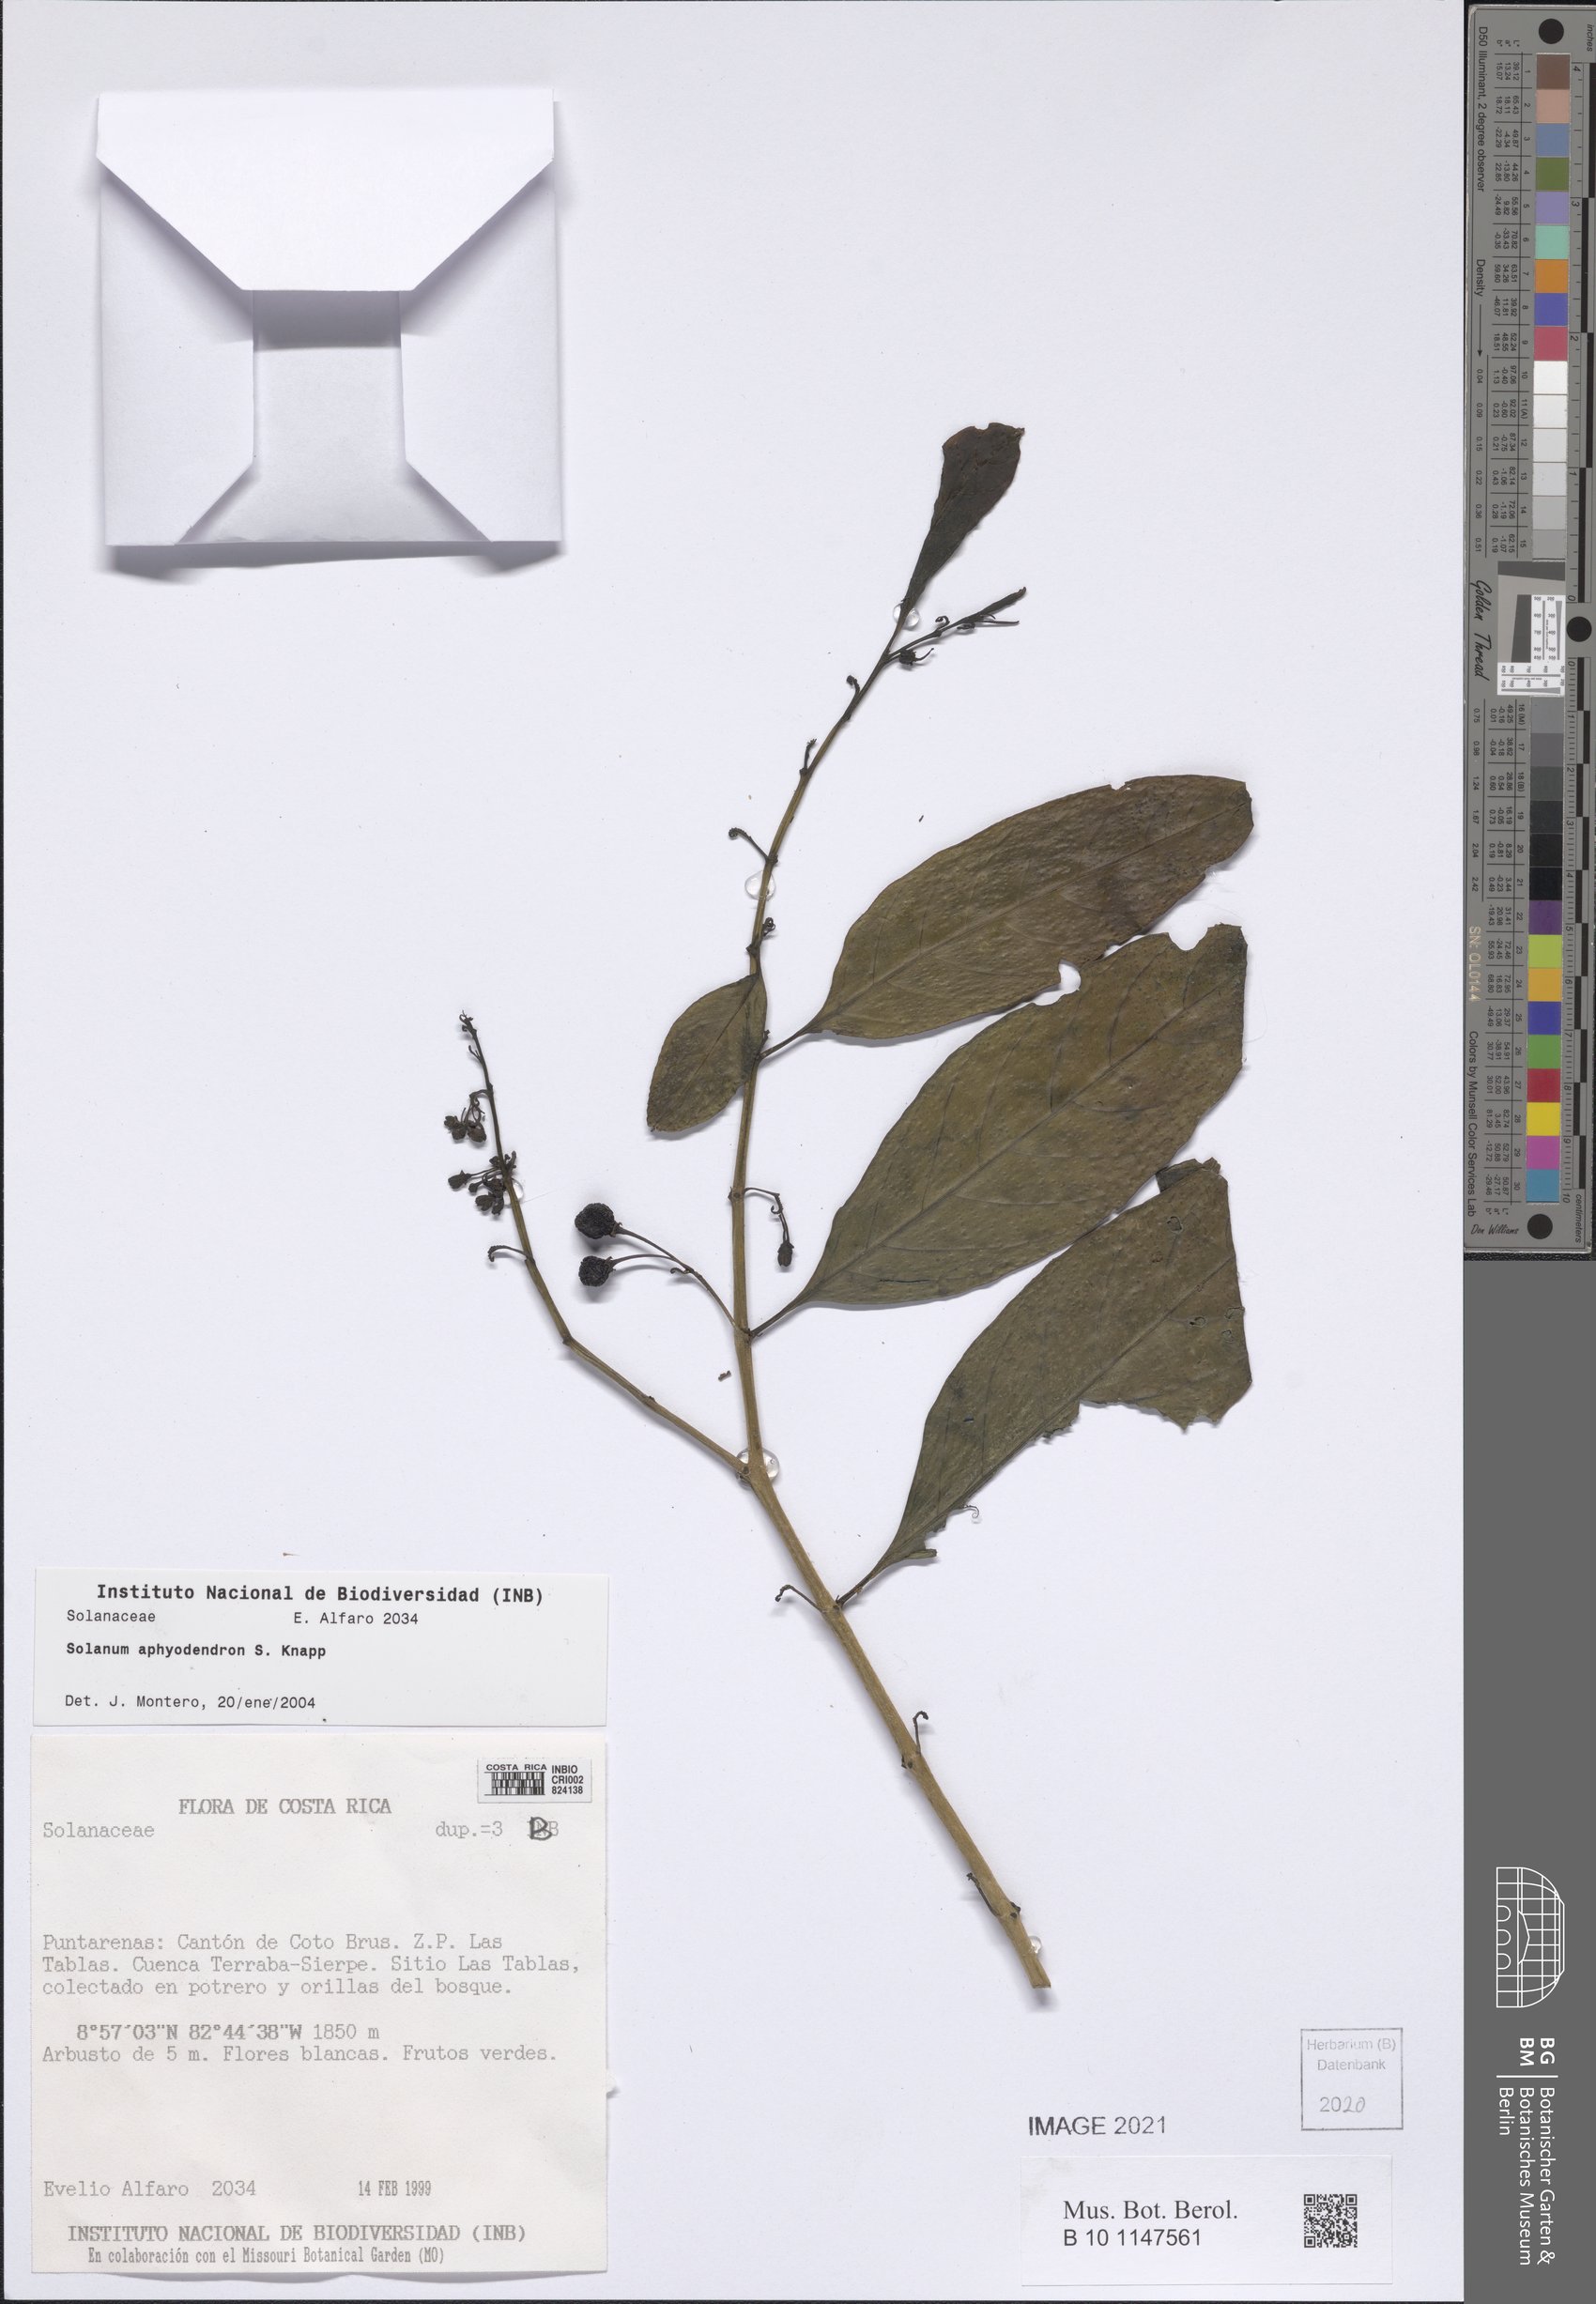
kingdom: Plantae
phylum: Tracheophyta
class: Magnoliopsida
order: Solanales
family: Solanaceae
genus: Solanum
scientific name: Solanum aphyodendron
